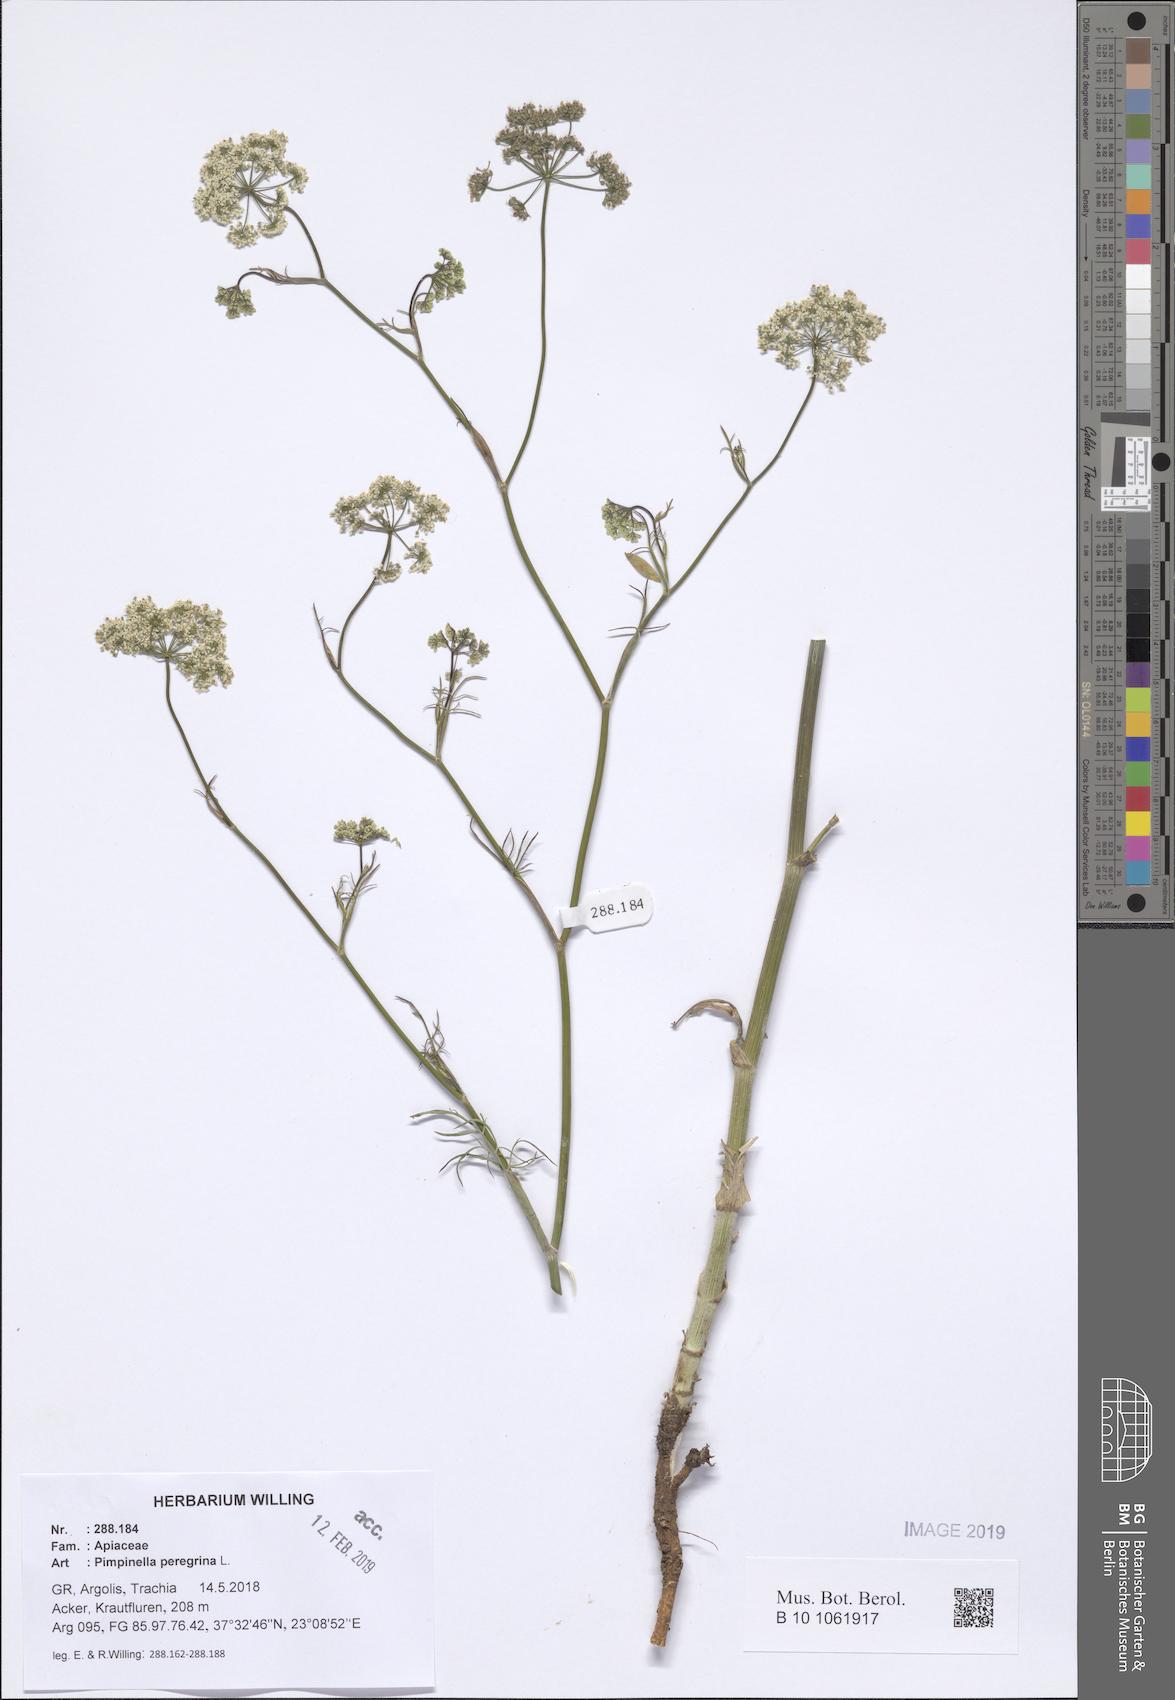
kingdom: Plantae
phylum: Tracheophyta
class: Magnoliopsida
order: Apiales
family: Apiaceae
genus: Pimpinella
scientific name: Pimpinella peregrina
